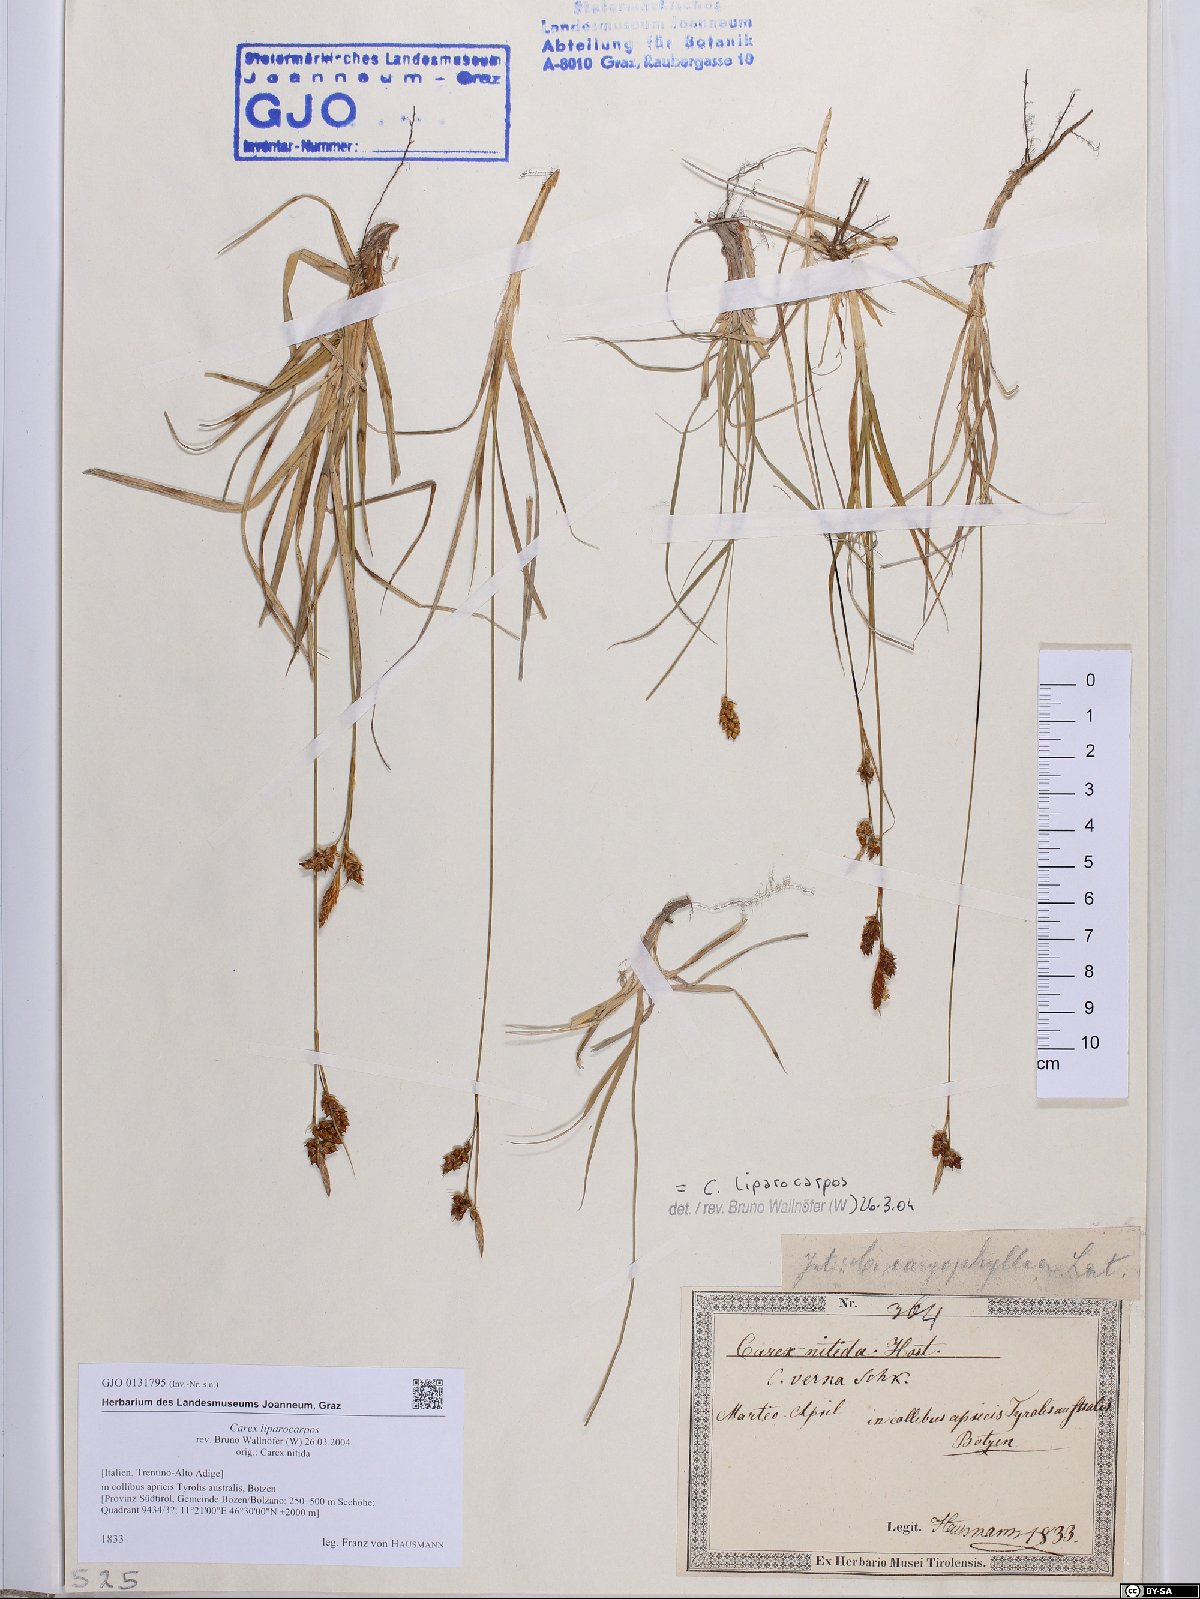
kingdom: Plantae
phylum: Tracheophyta
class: Liliopsida
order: Poales
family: Cyperaceae
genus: Carex
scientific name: Carex liparocarpos
